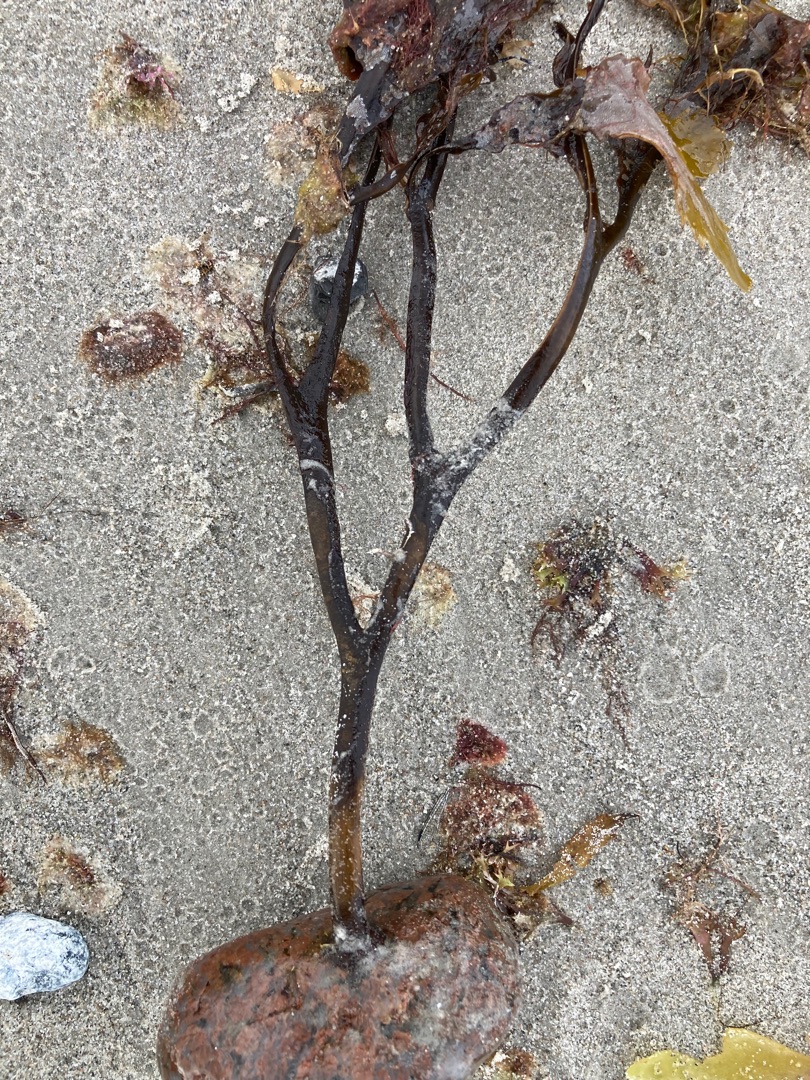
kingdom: Chromista
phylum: Ochrophyta
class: Phaeophyceae
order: Fucales
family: Fucaceae
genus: Fucus
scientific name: Fucus serratus
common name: Savtang
